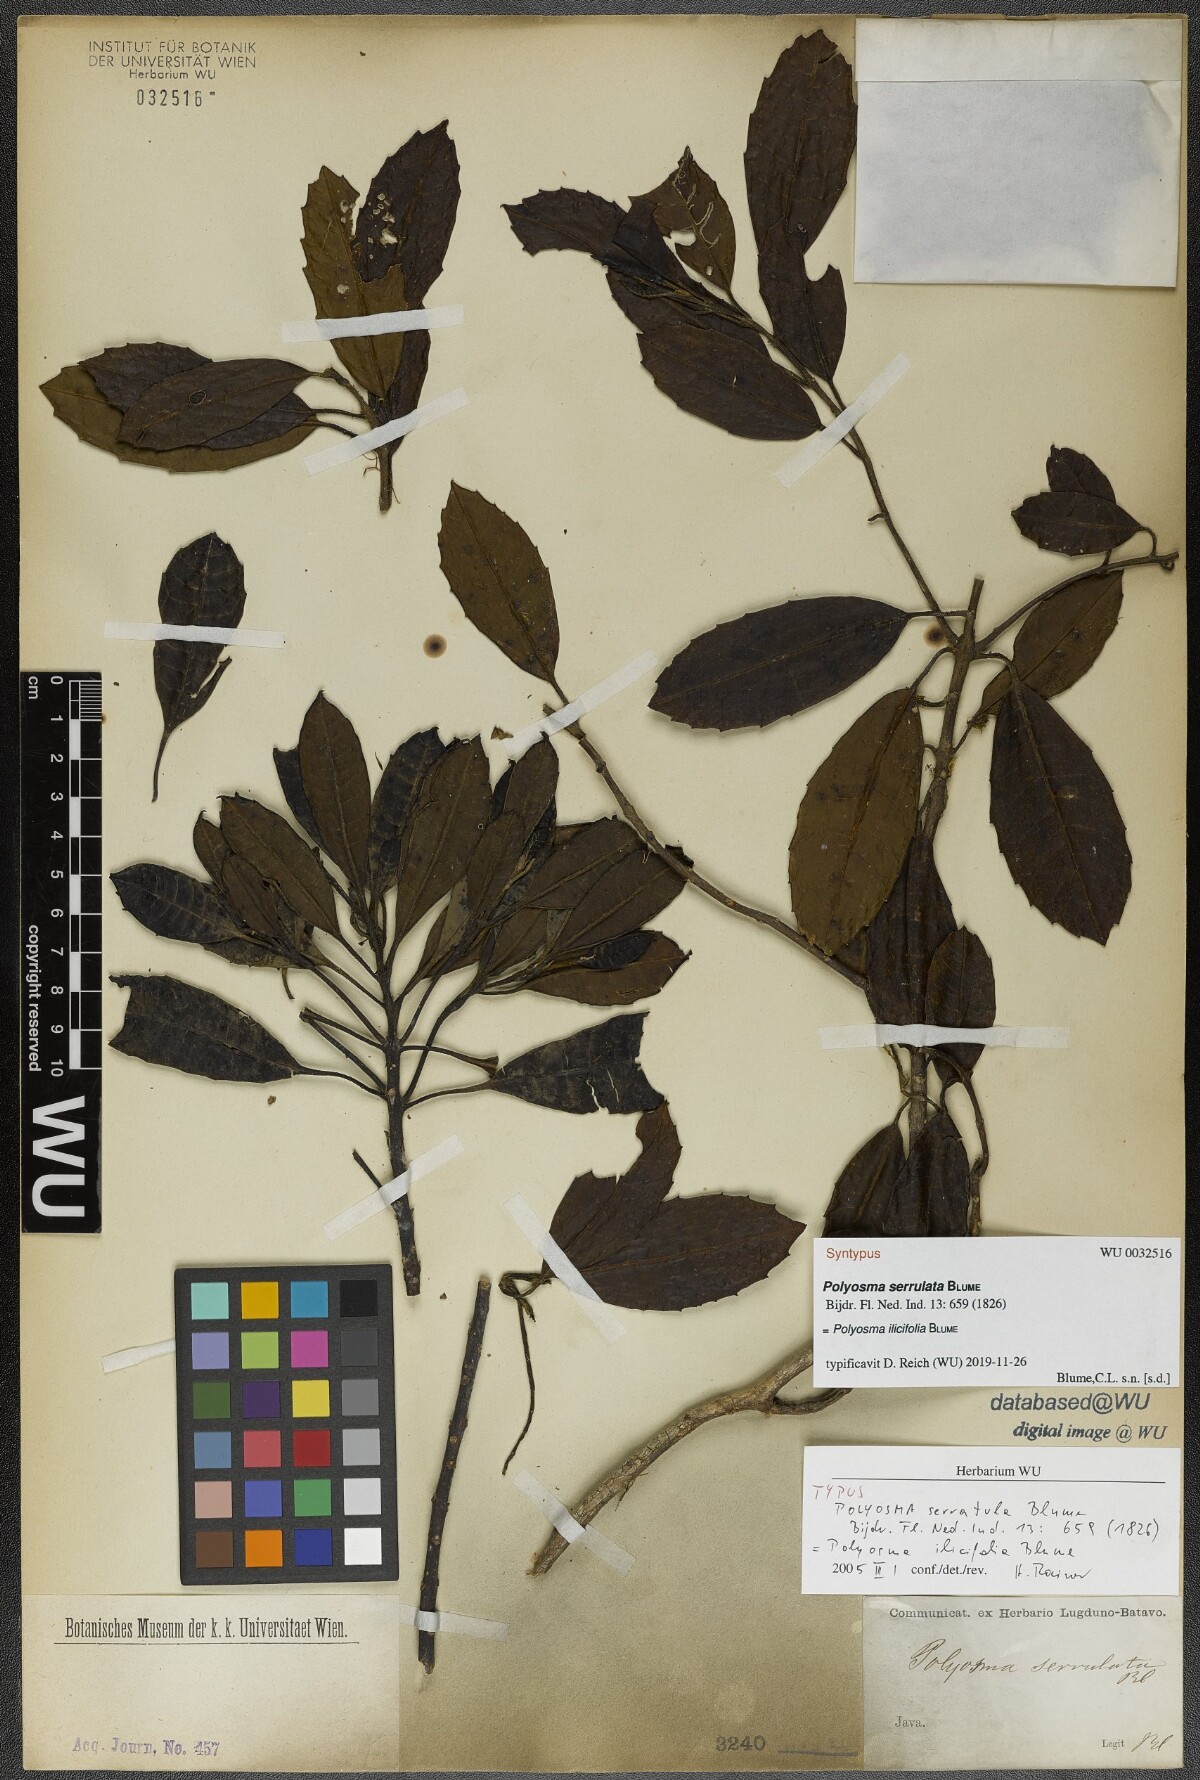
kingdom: Plantae
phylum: Tracheophyta
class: Magnoliopsida
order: Escalloniales
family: Escalloniaceae
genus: Polyosma
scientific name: Polyosma ilicifolia
